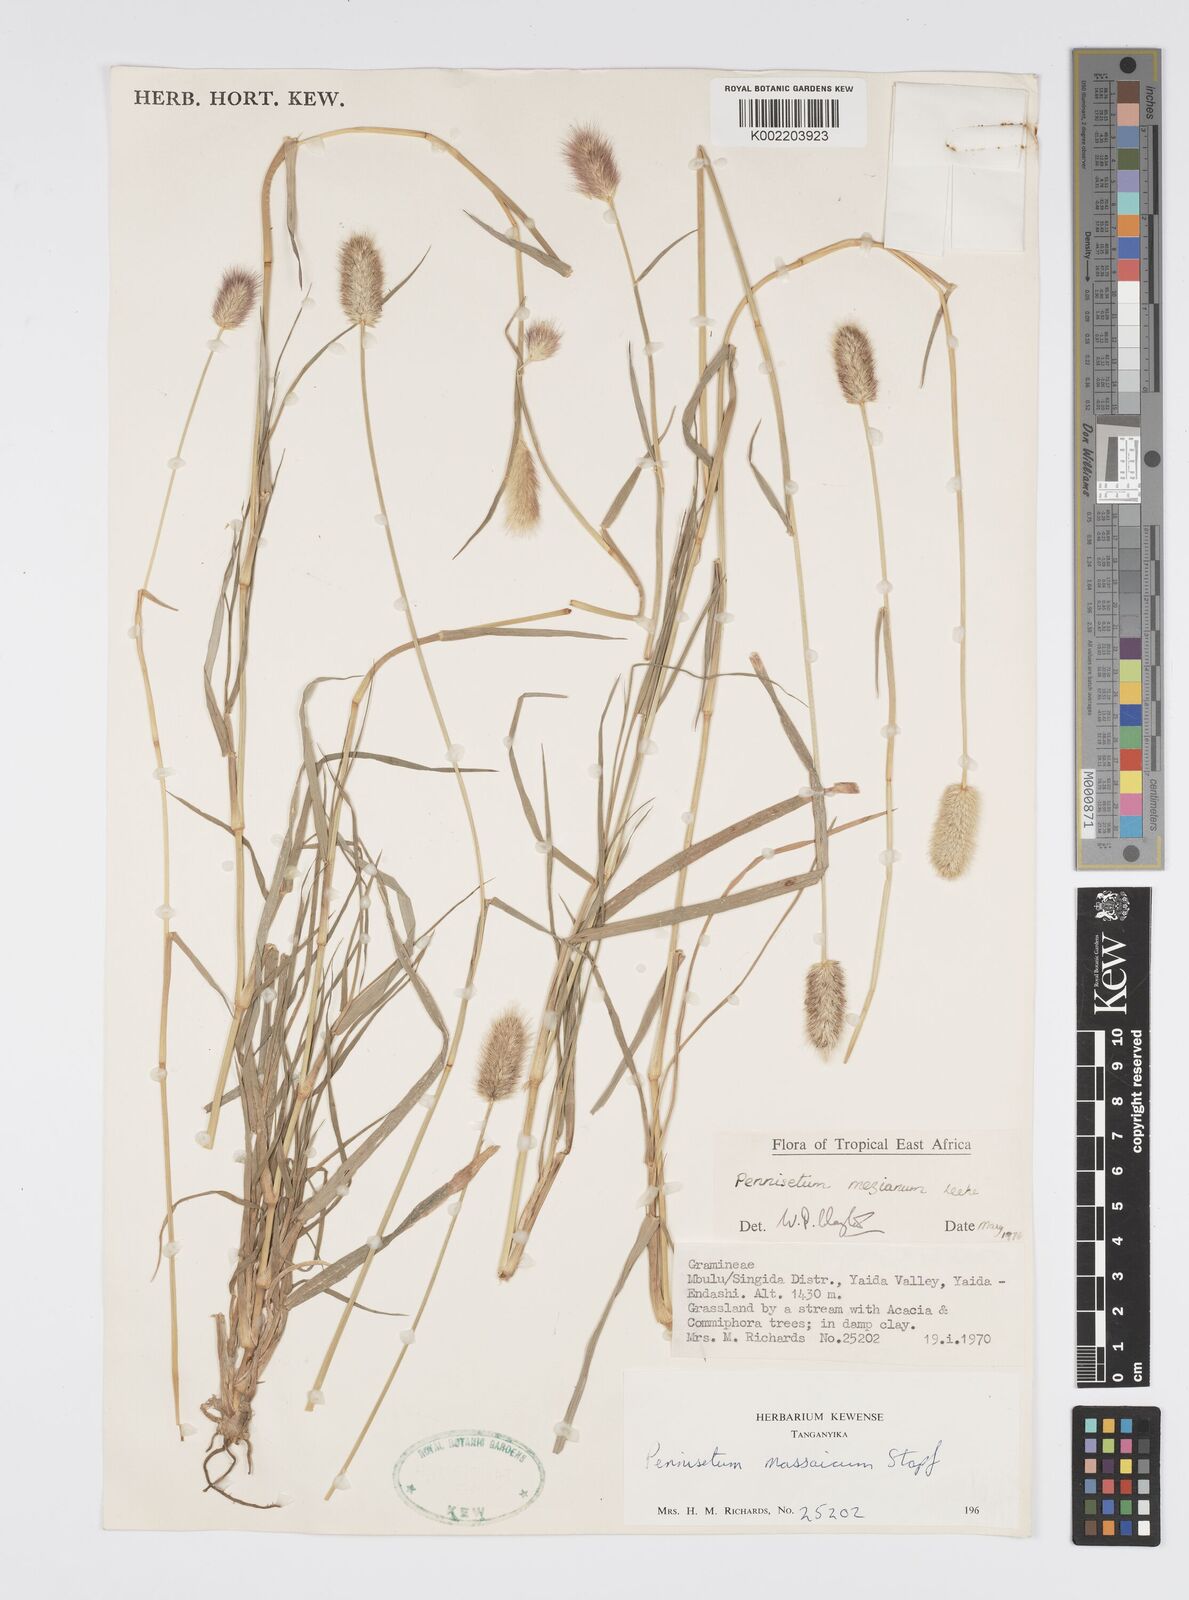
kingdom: Plantae
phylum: Tracheophyta
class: Liliopsida
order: Poales
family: Poaceae
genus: Cenchrus
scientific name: Cenchrus mezianus
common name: Bamboo grass
